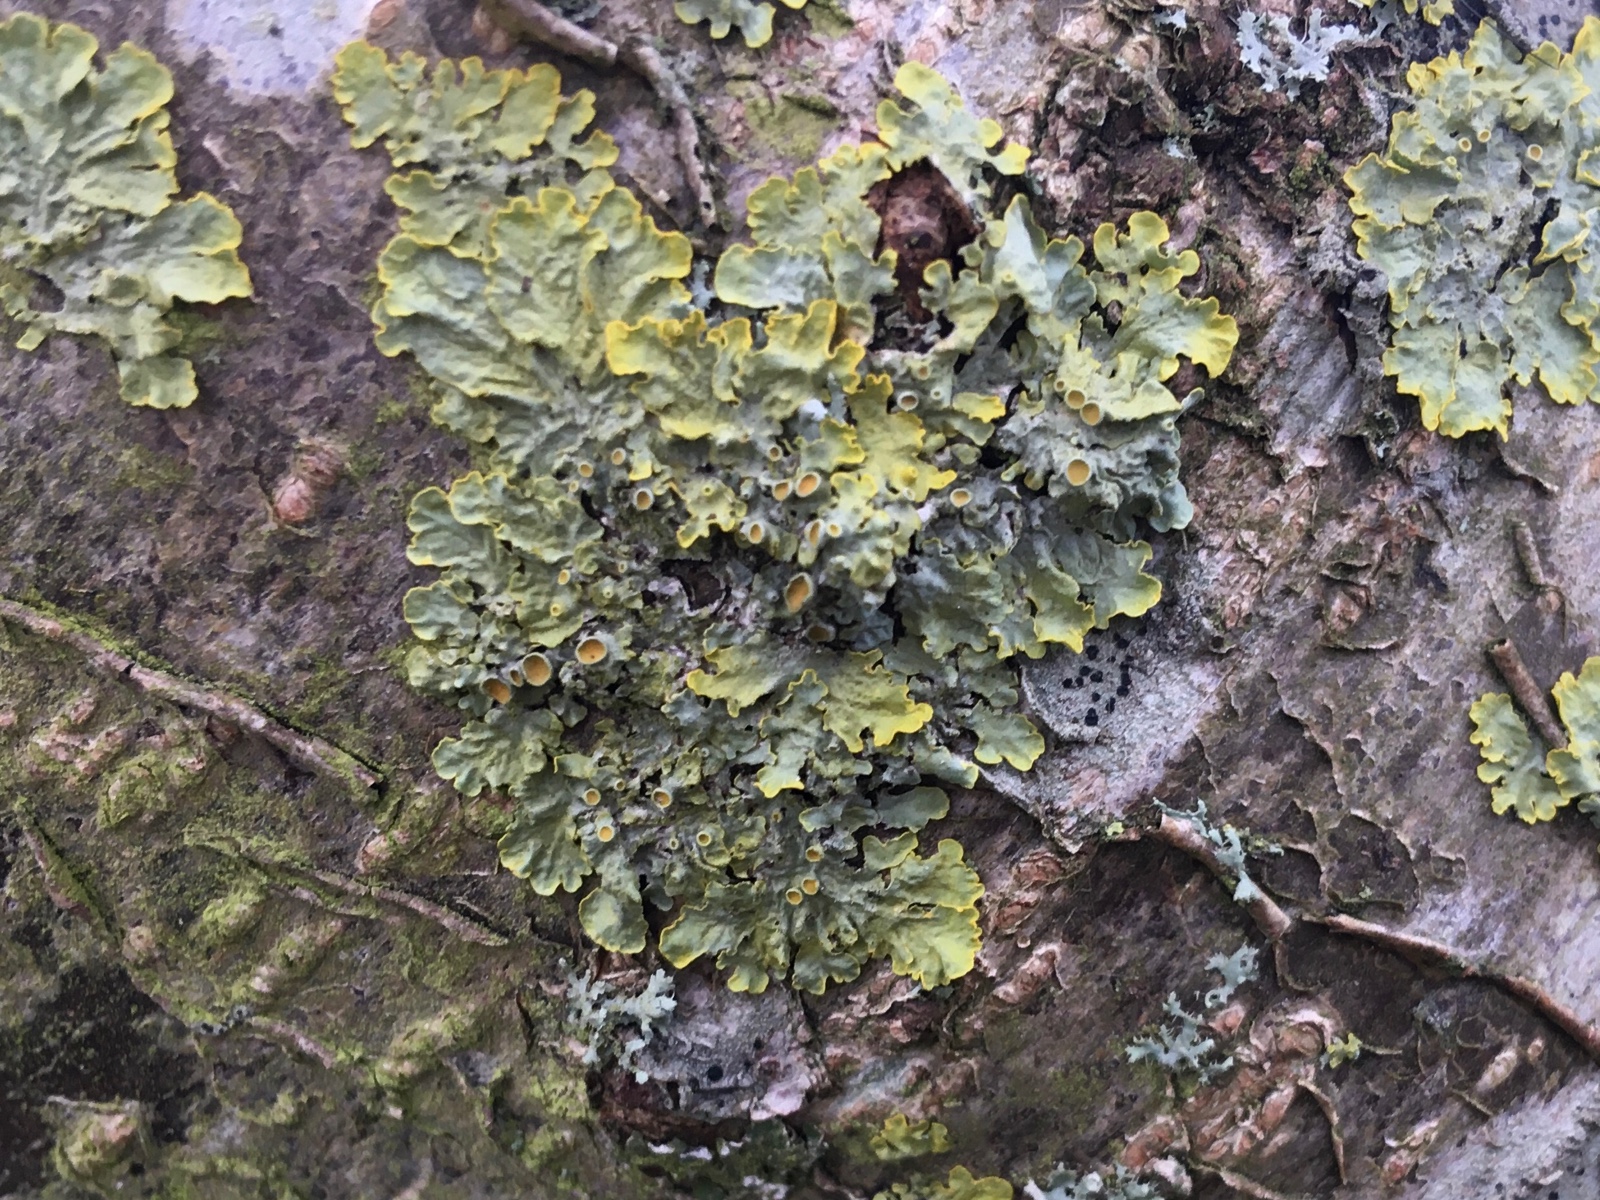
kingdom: Fungi
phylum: Ascomycota
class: Lecanoromycetes
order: Teloschistales
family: Teloschistaceae
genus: Xanthoria
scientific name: Xanthoria parietina
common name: almindelig væggelav
